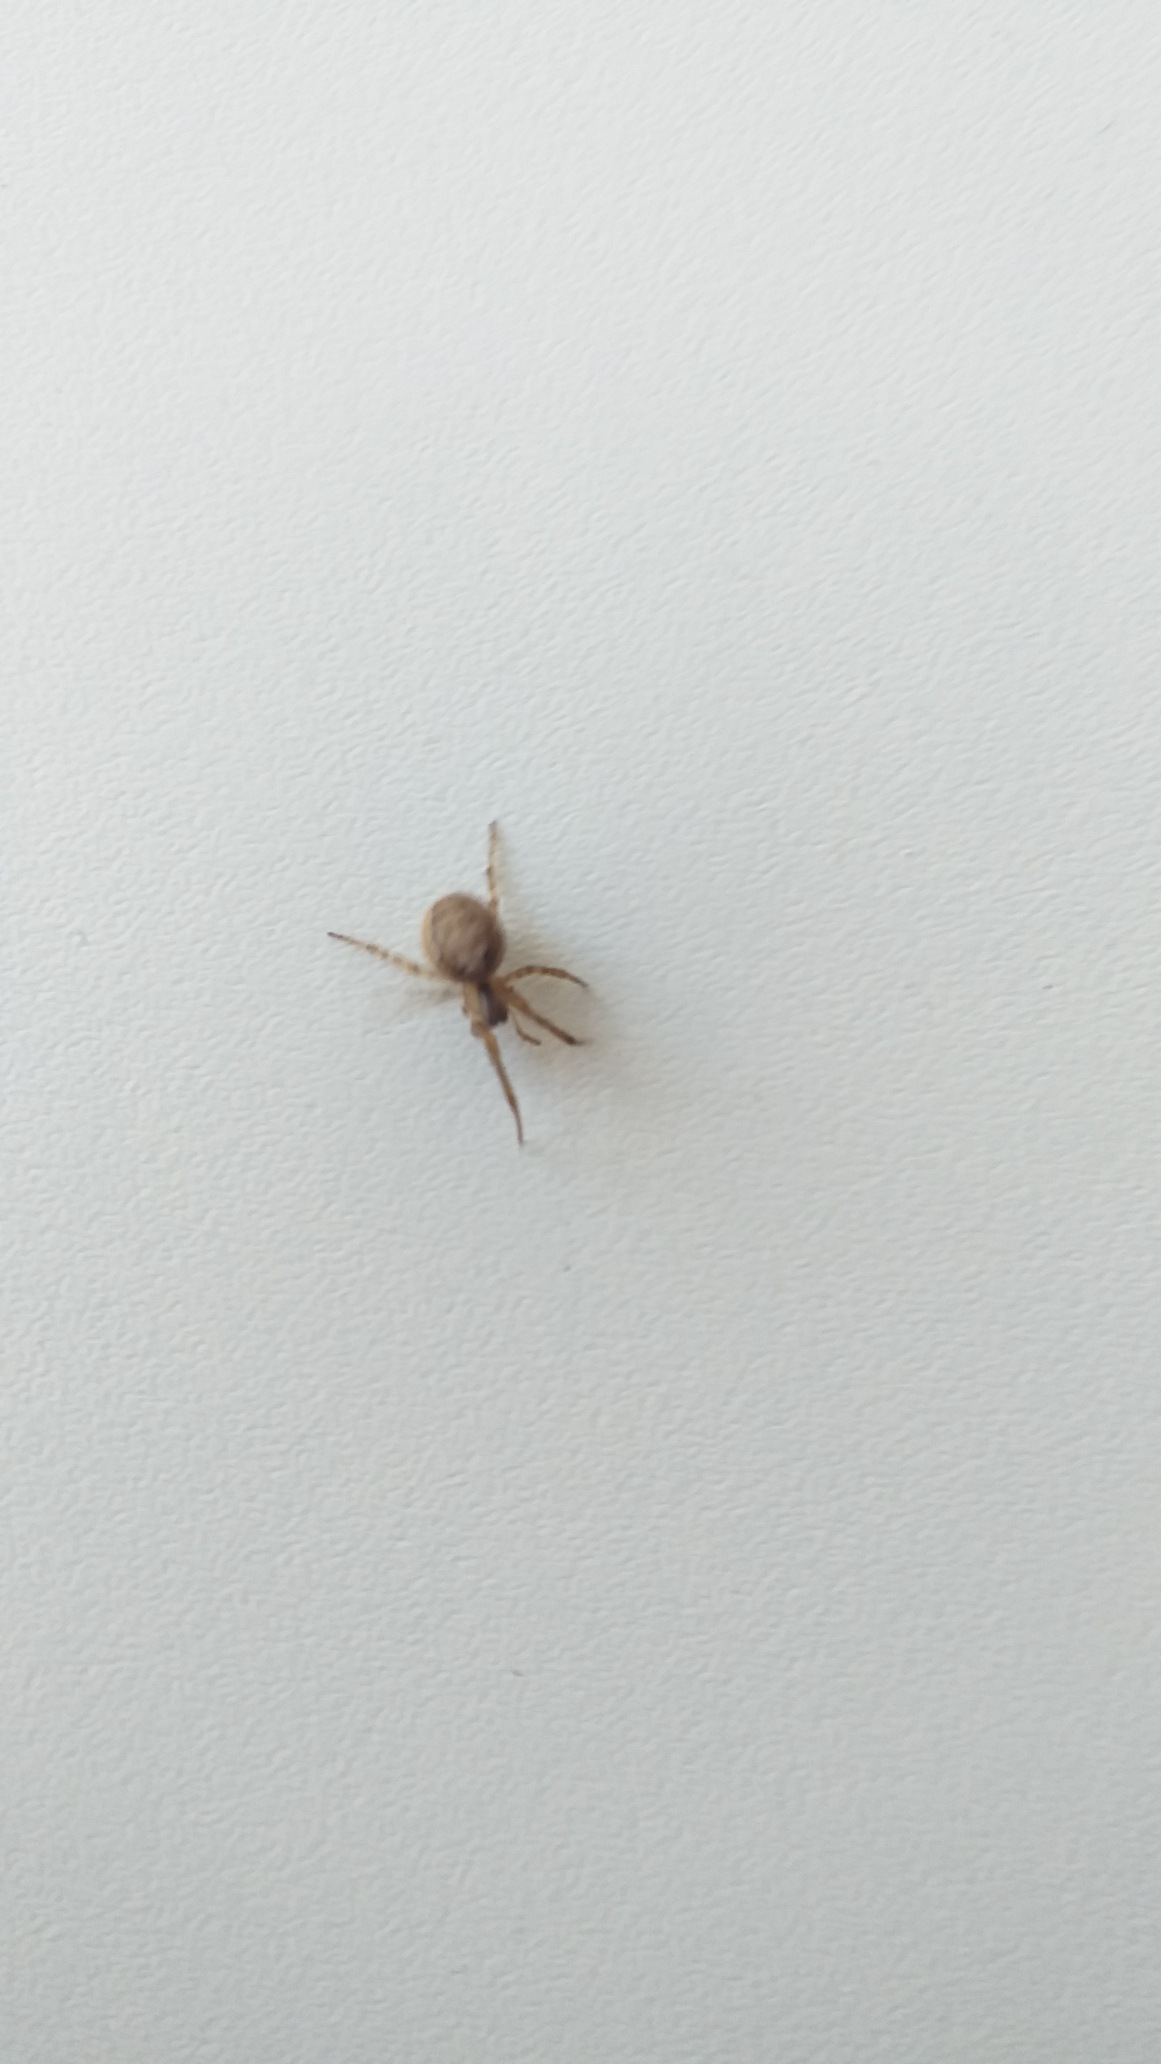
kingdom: Animalia
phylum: Arthropoda
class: Arachnida
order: Araneae
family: Araneidae
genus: Zygiella
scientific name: Zygiella x-notata
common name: Grå sektoredderkop
